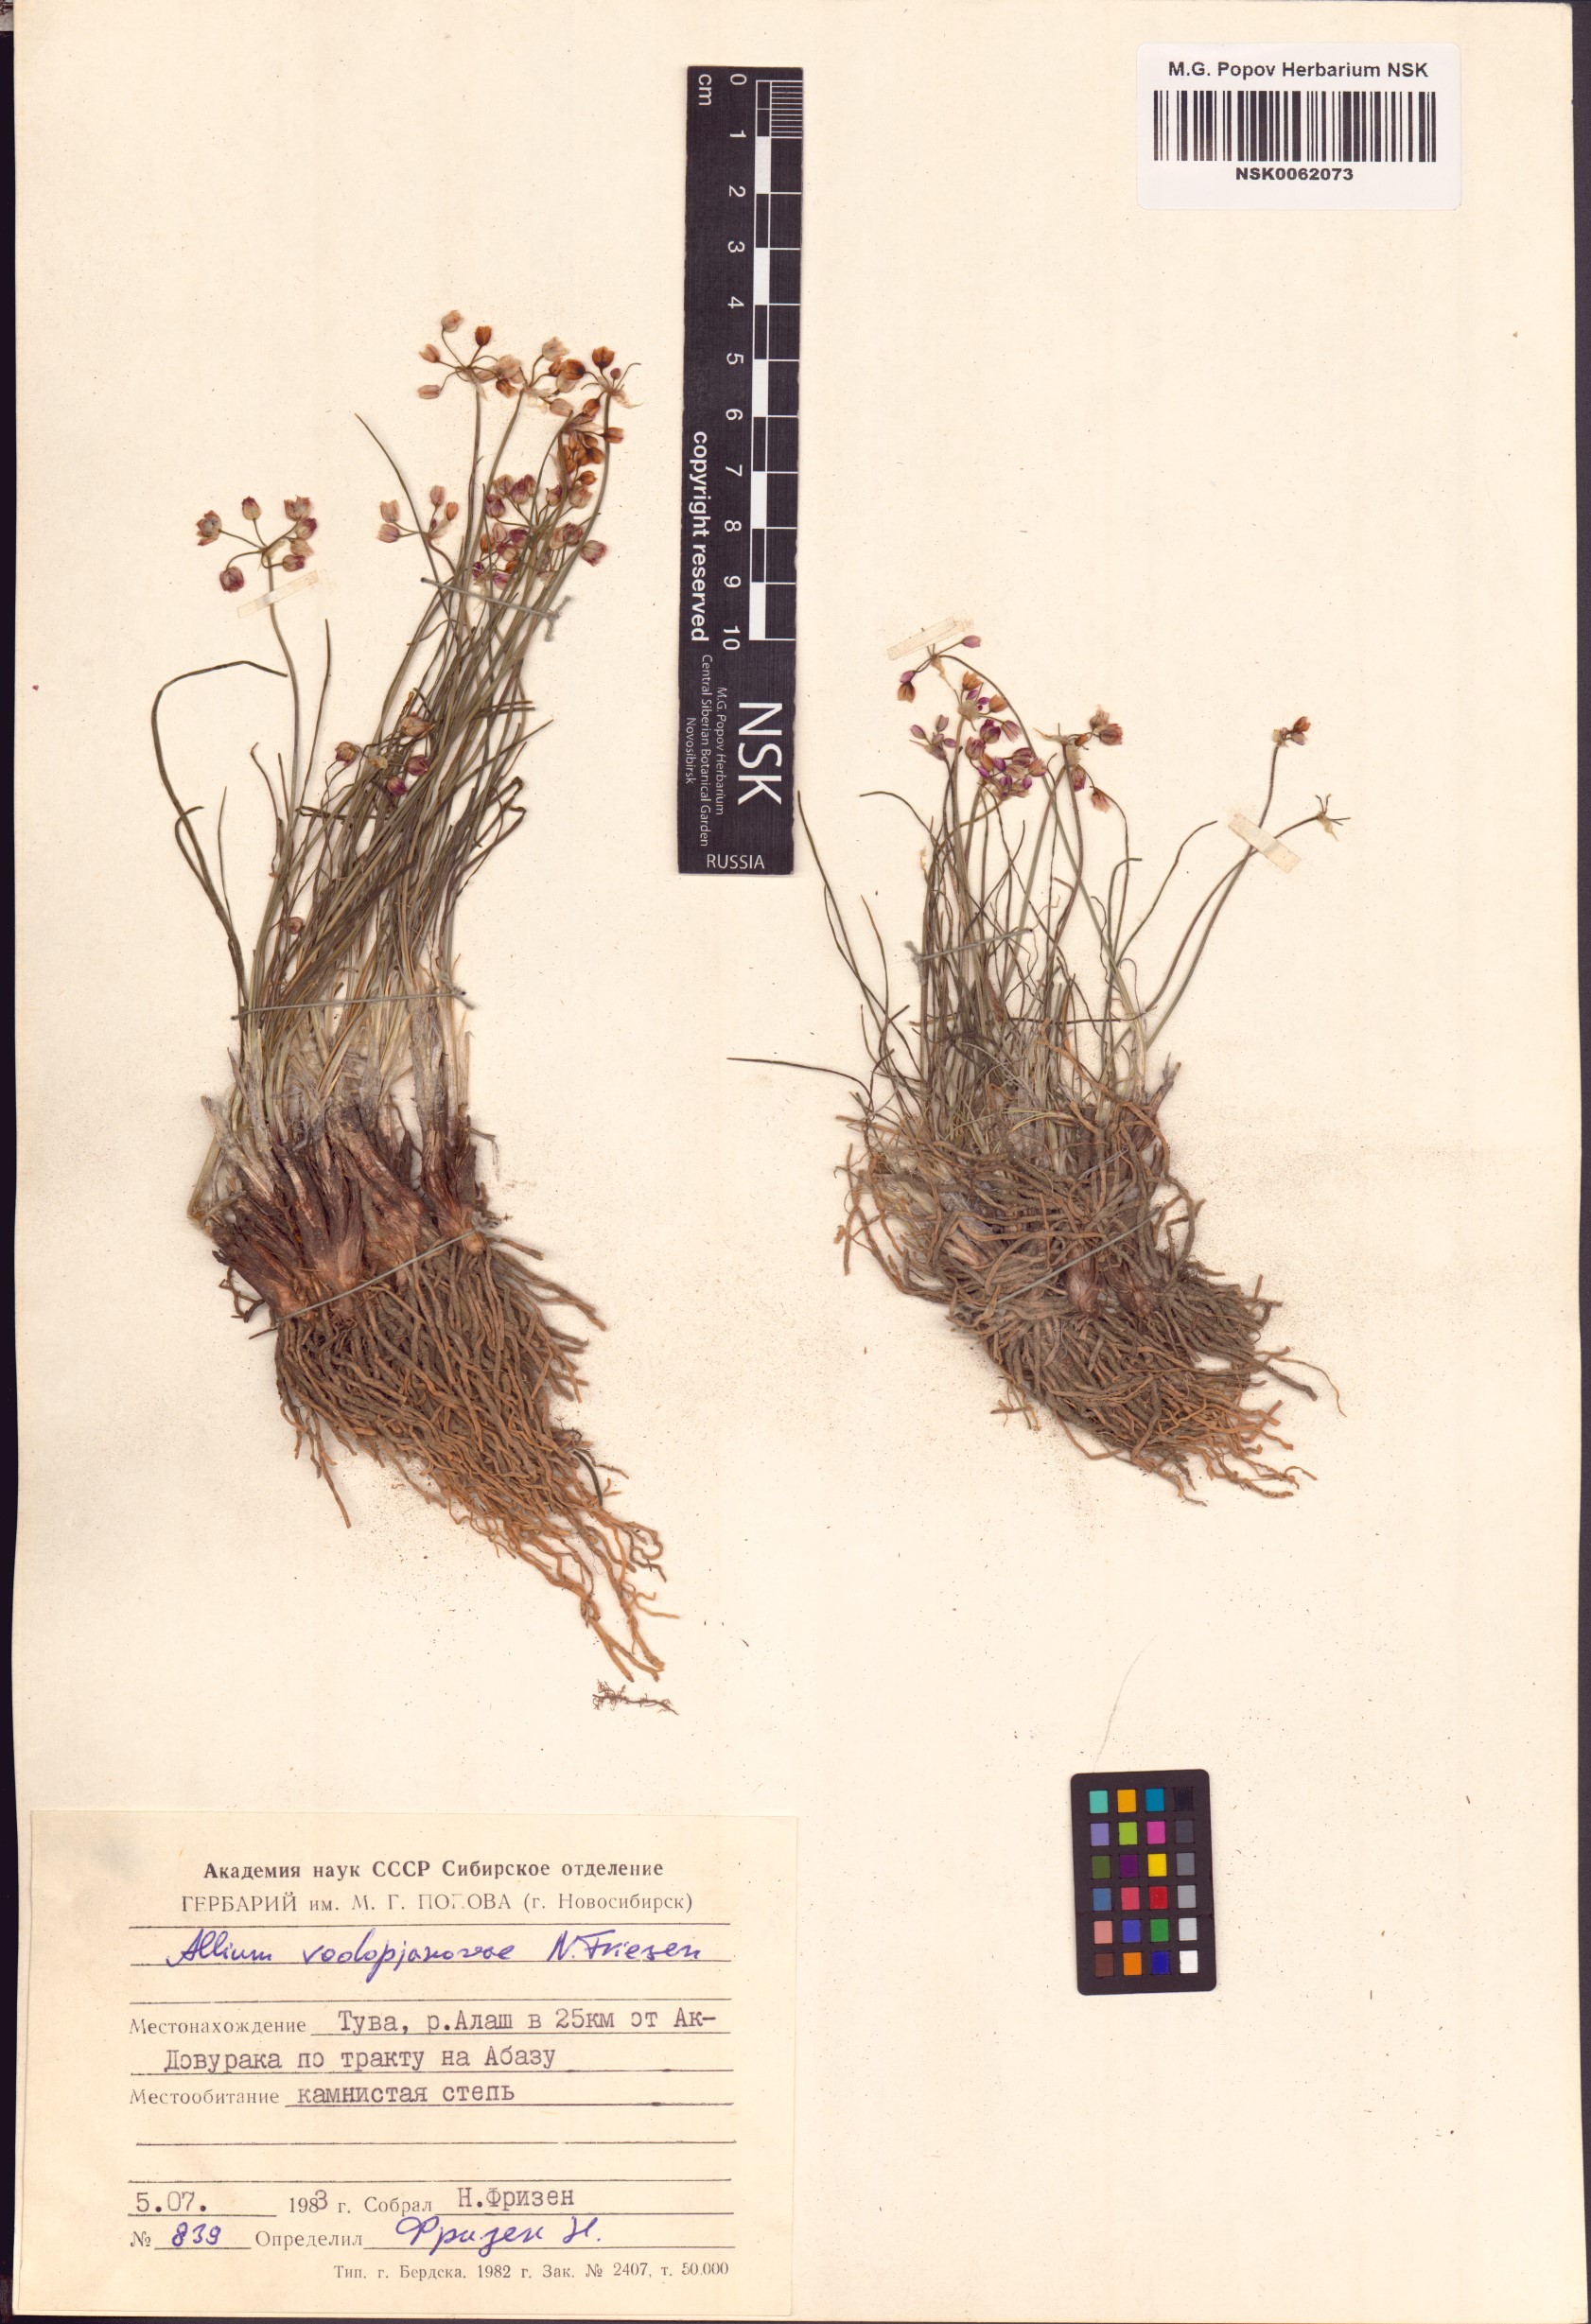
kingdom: Plantae
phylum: Tracheophyta
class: Liliopsida
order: Asparagales
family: Amaryllidaceae
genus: Allium
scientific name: Allium vodopjanovae
